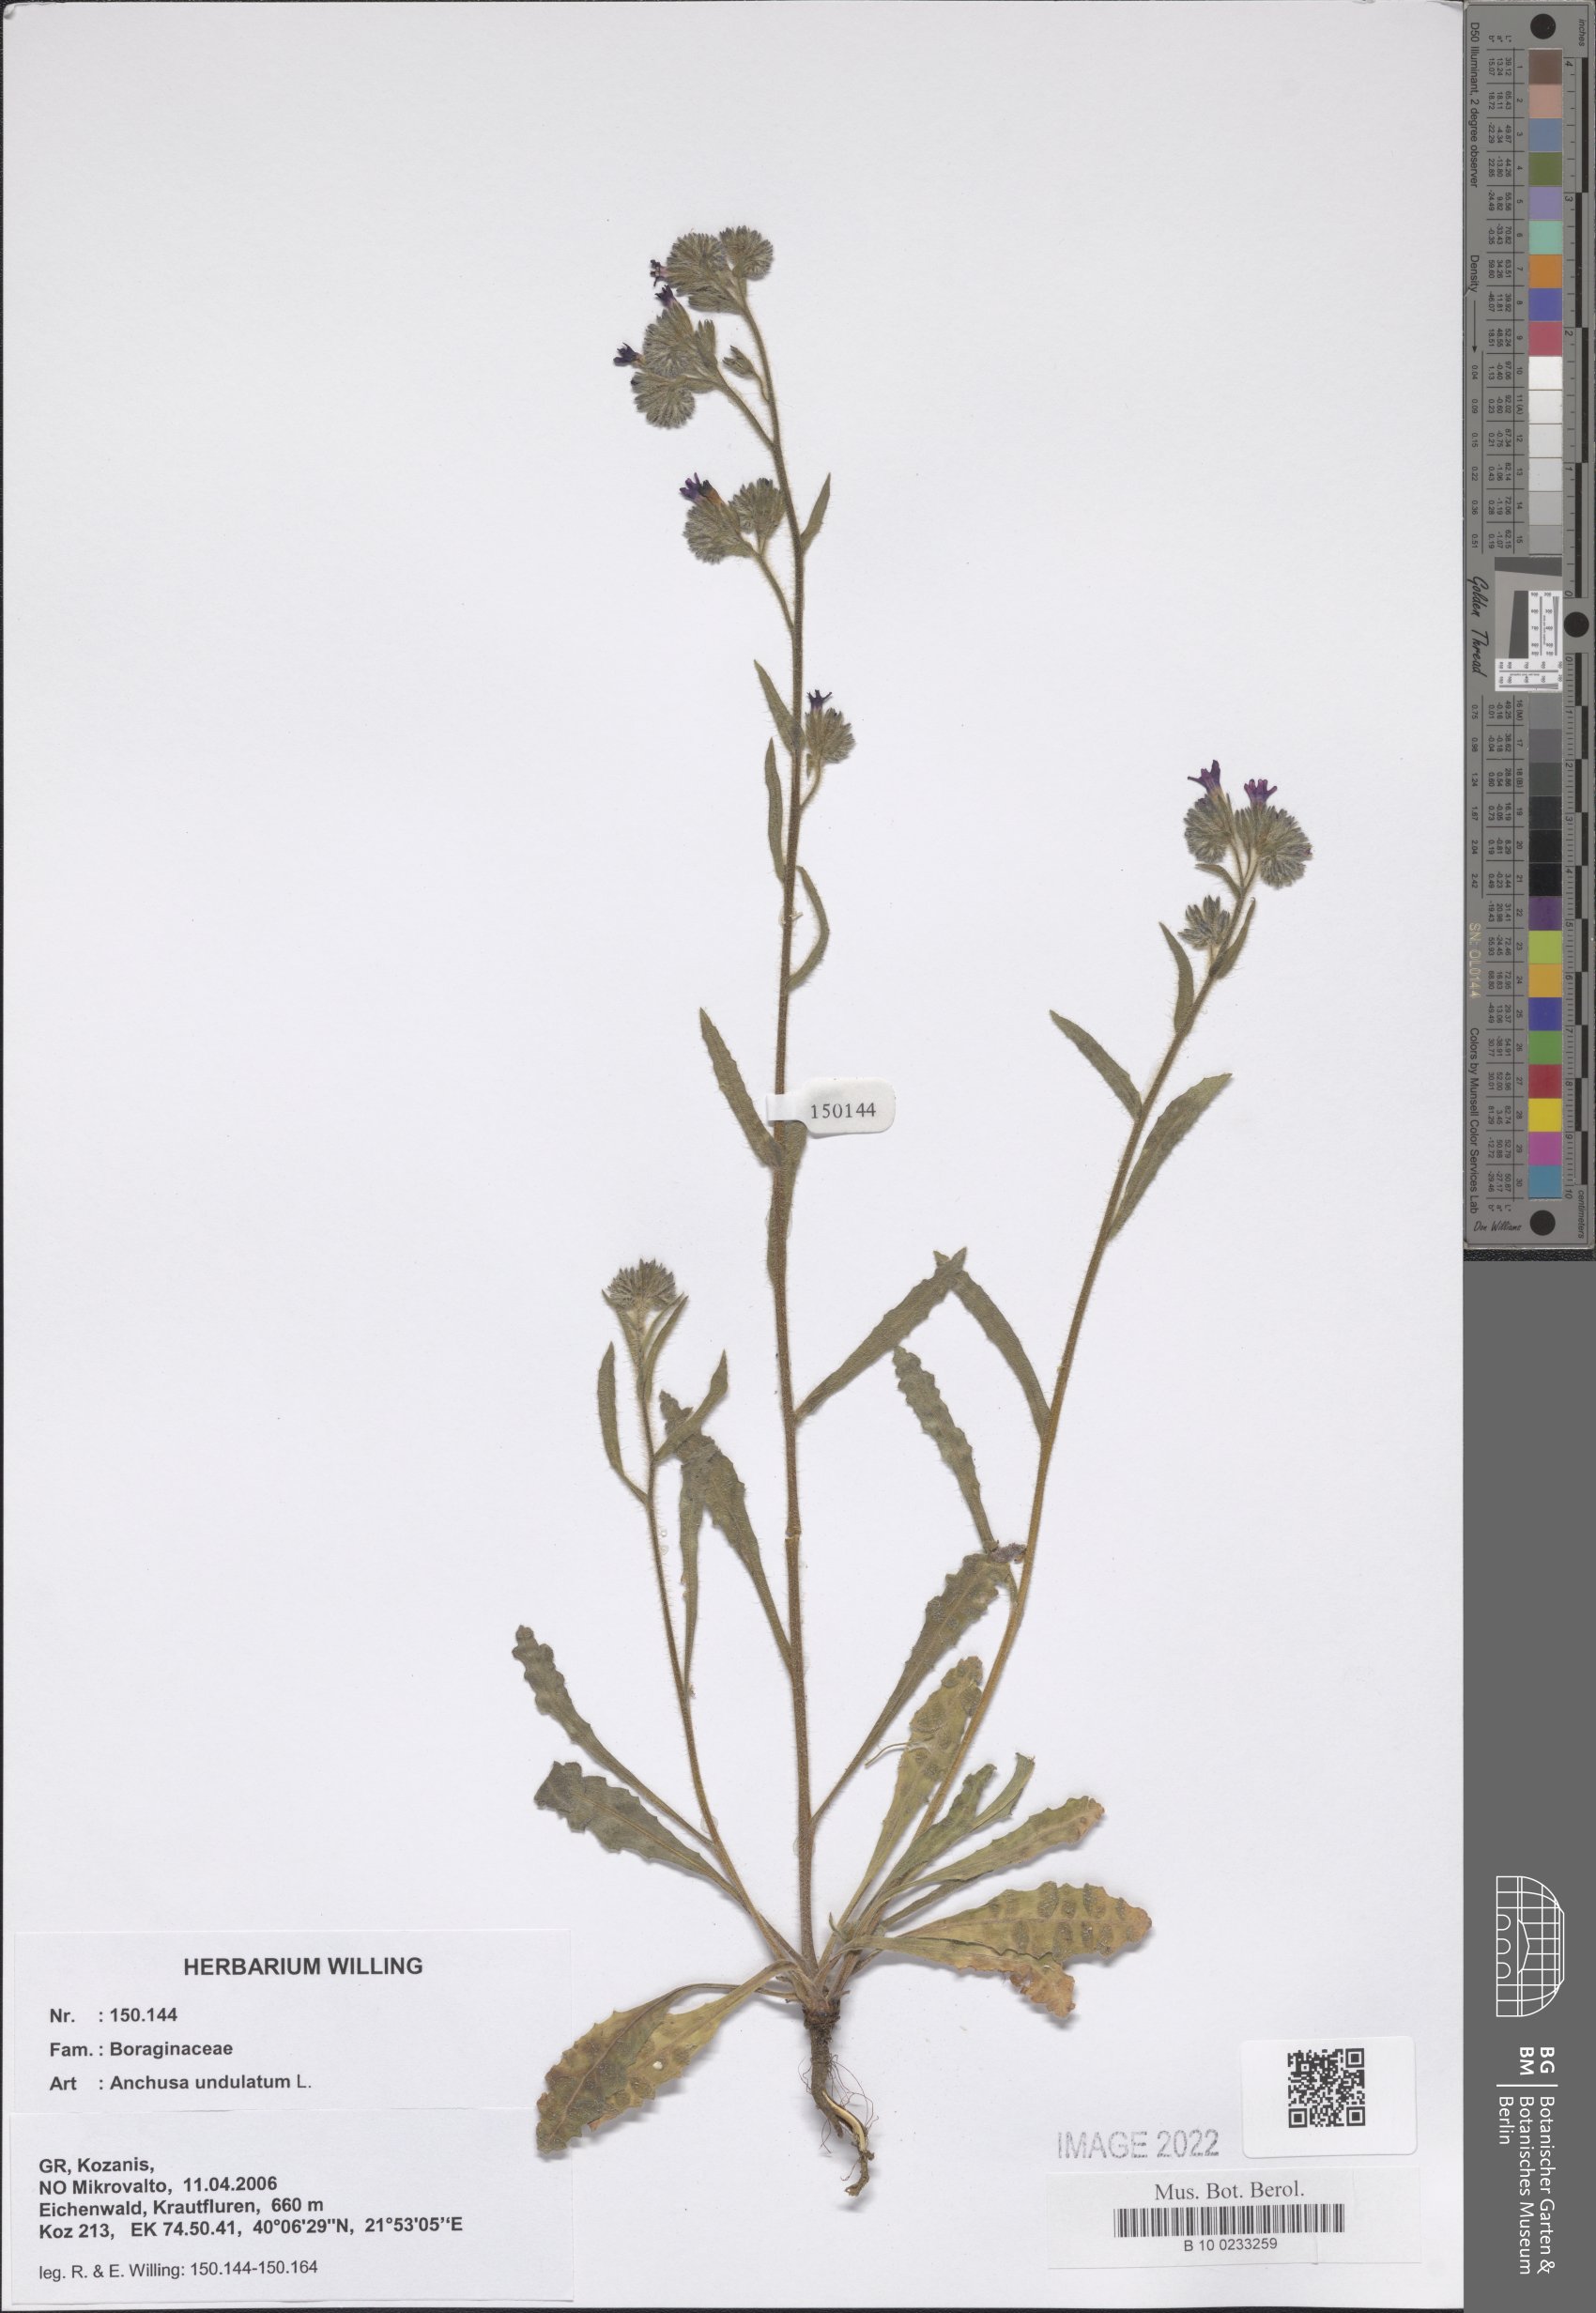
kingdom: Plantae
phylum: Tracheophyta
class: Magnoliopsida
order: Boraginales
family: Boraginaceae
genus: Anchusa
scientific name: Anchusa undulata
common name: Undulate alkanet
